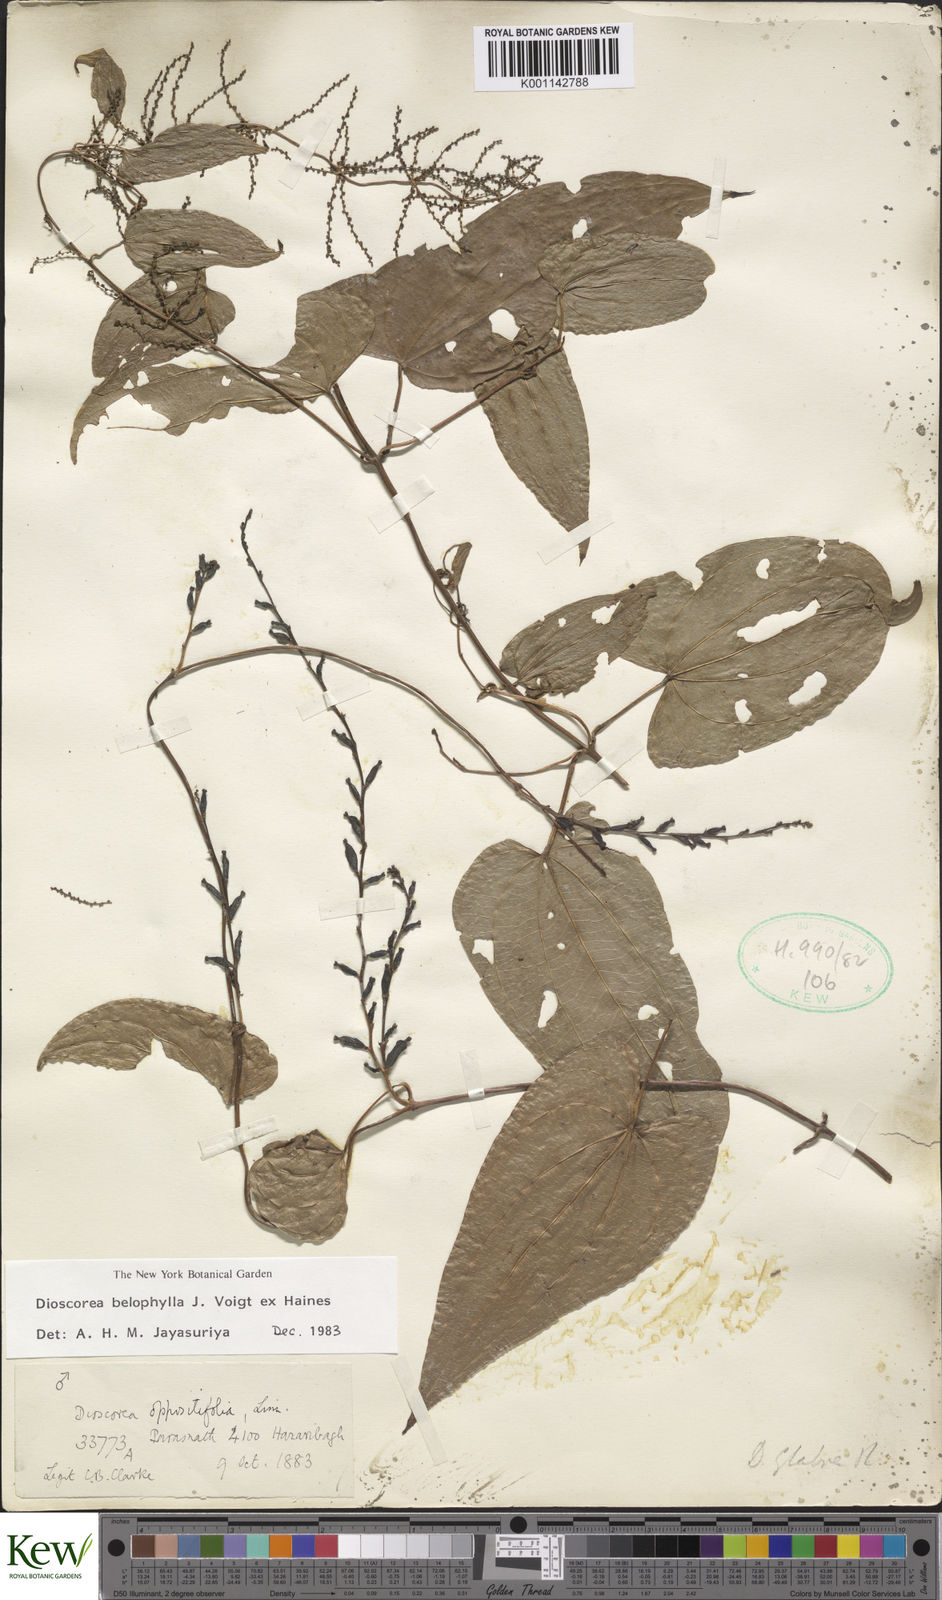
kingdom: Plantae
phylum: Tracheophyta
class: Liliopsida
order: Dioscoreales
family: Dioscoreaceae
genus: Dioscorea
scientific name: Dioscorea belophylla
